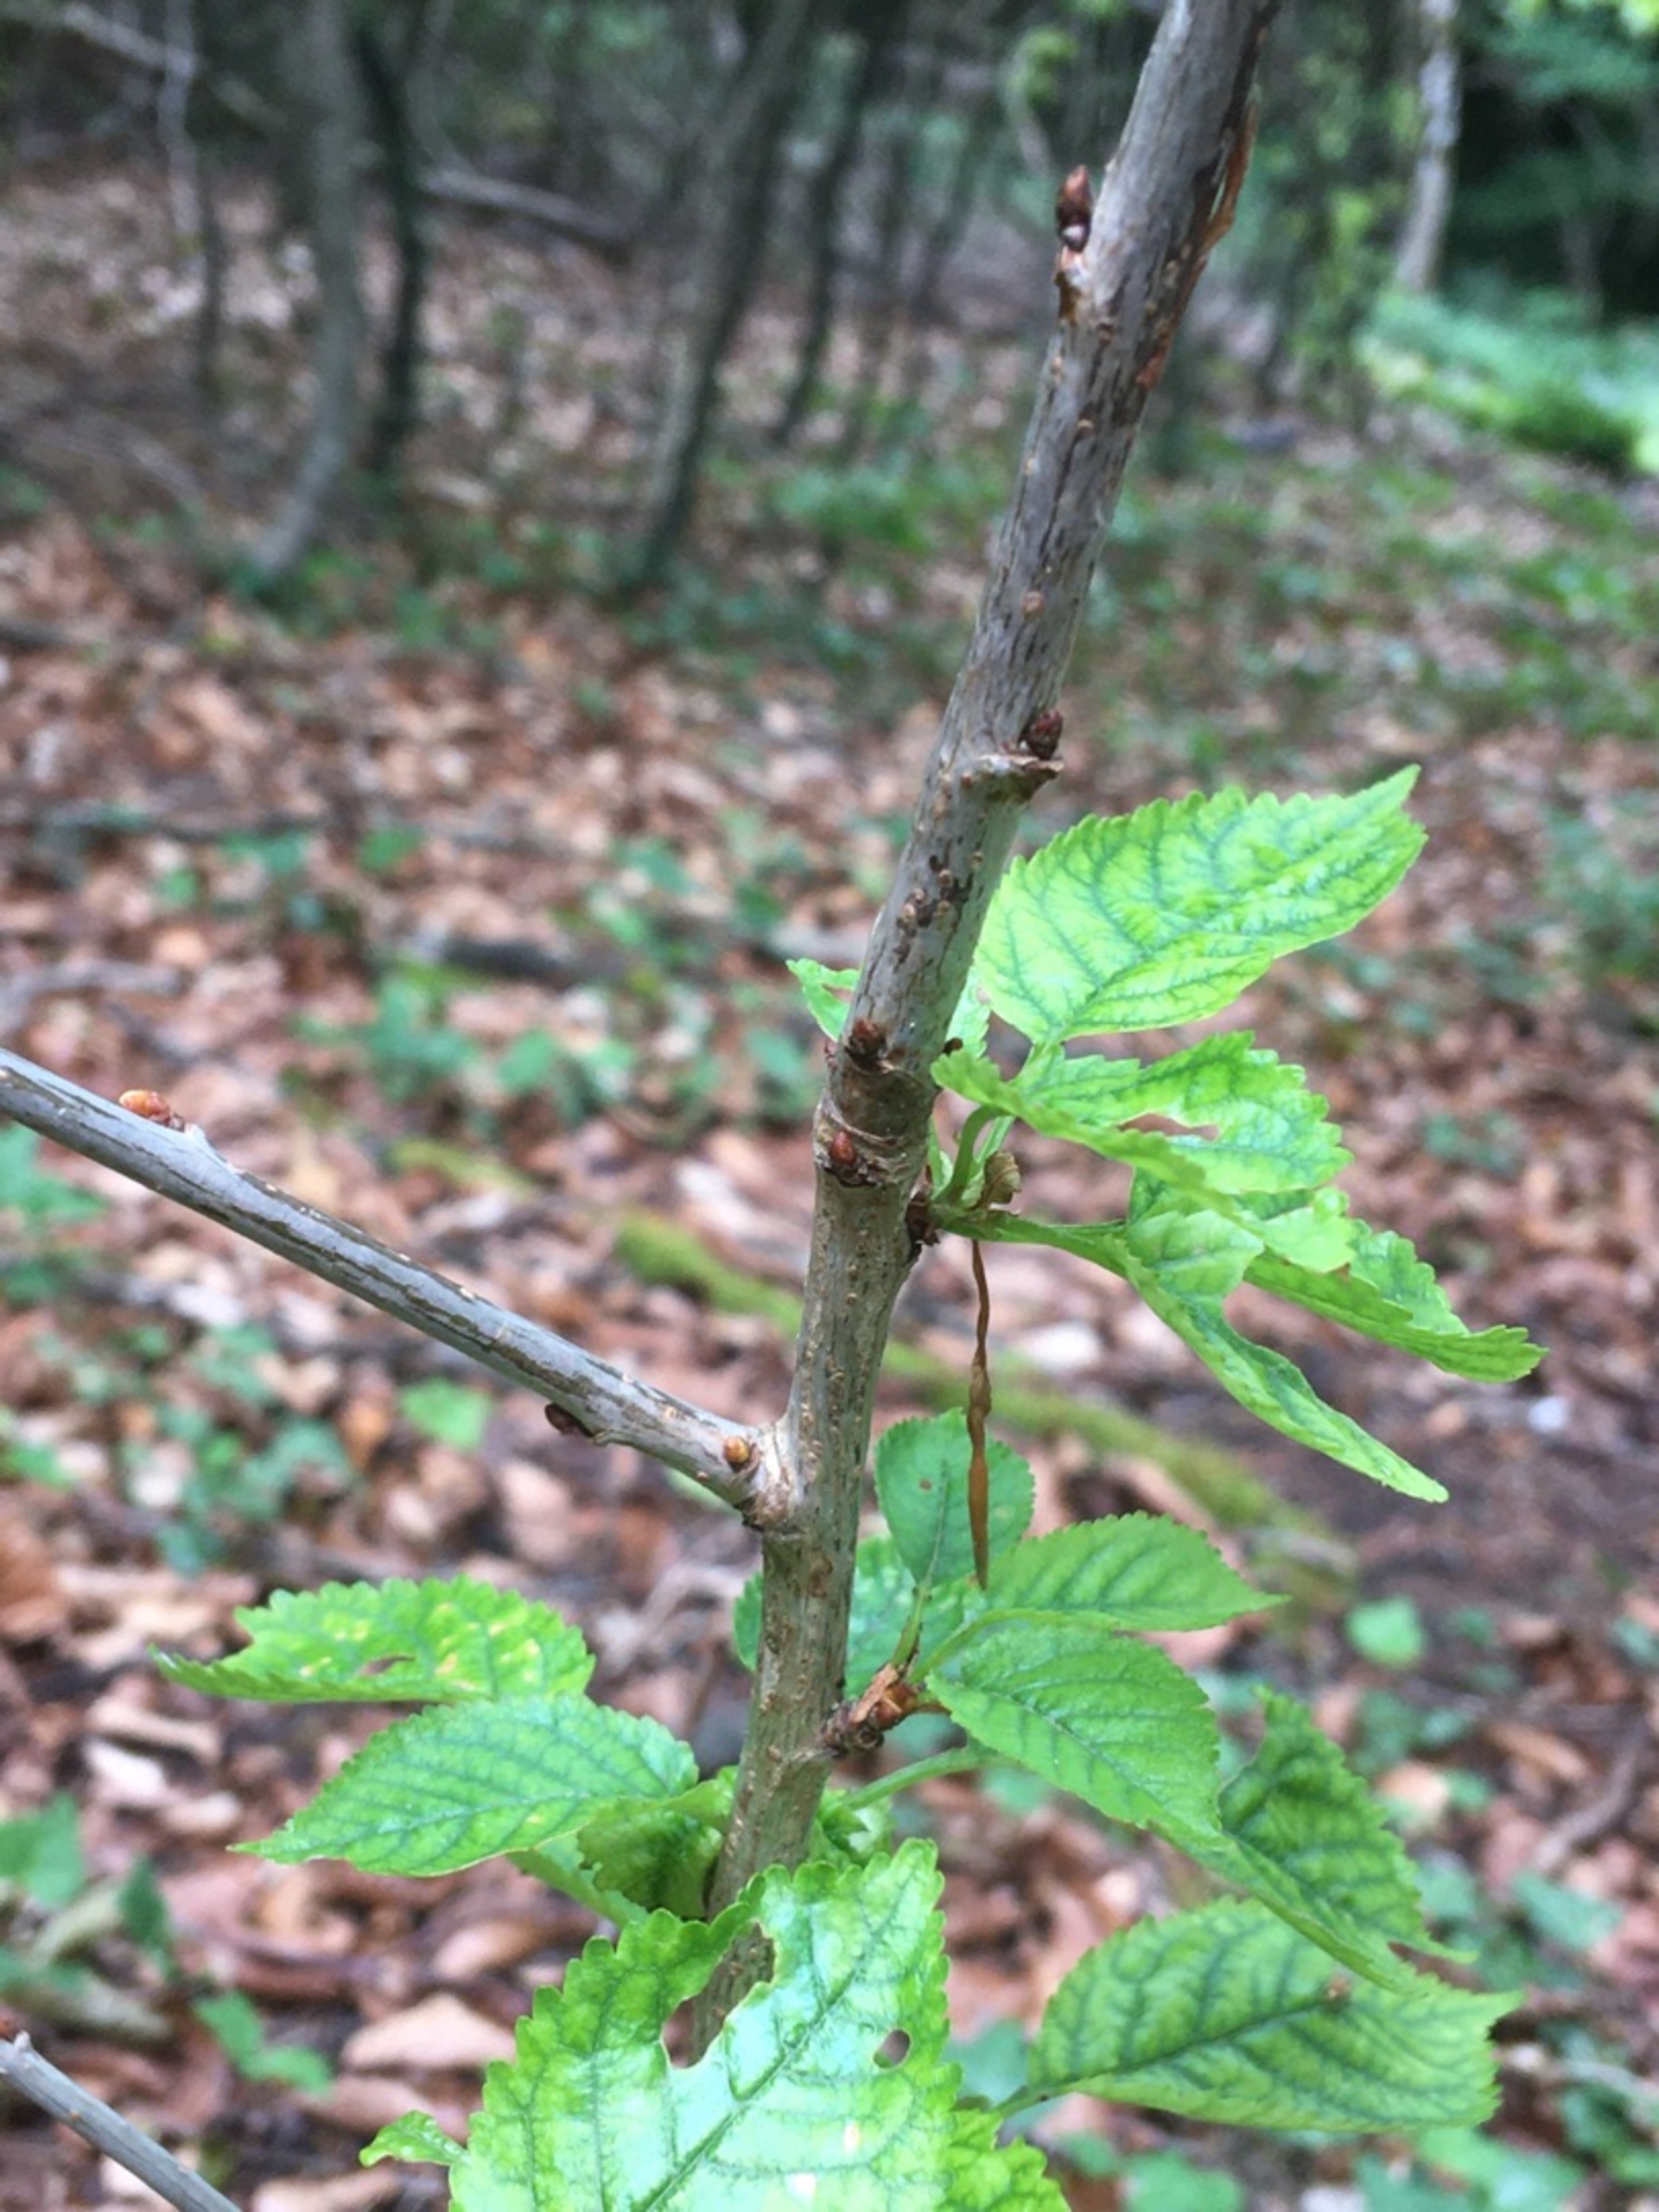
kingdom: Plantae
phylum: Tracheophyta
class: Magnoliopsida
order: Rosales
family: Rosaceae
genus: Prunus
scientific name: Prunus avium
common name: Fugle-kirsebær
